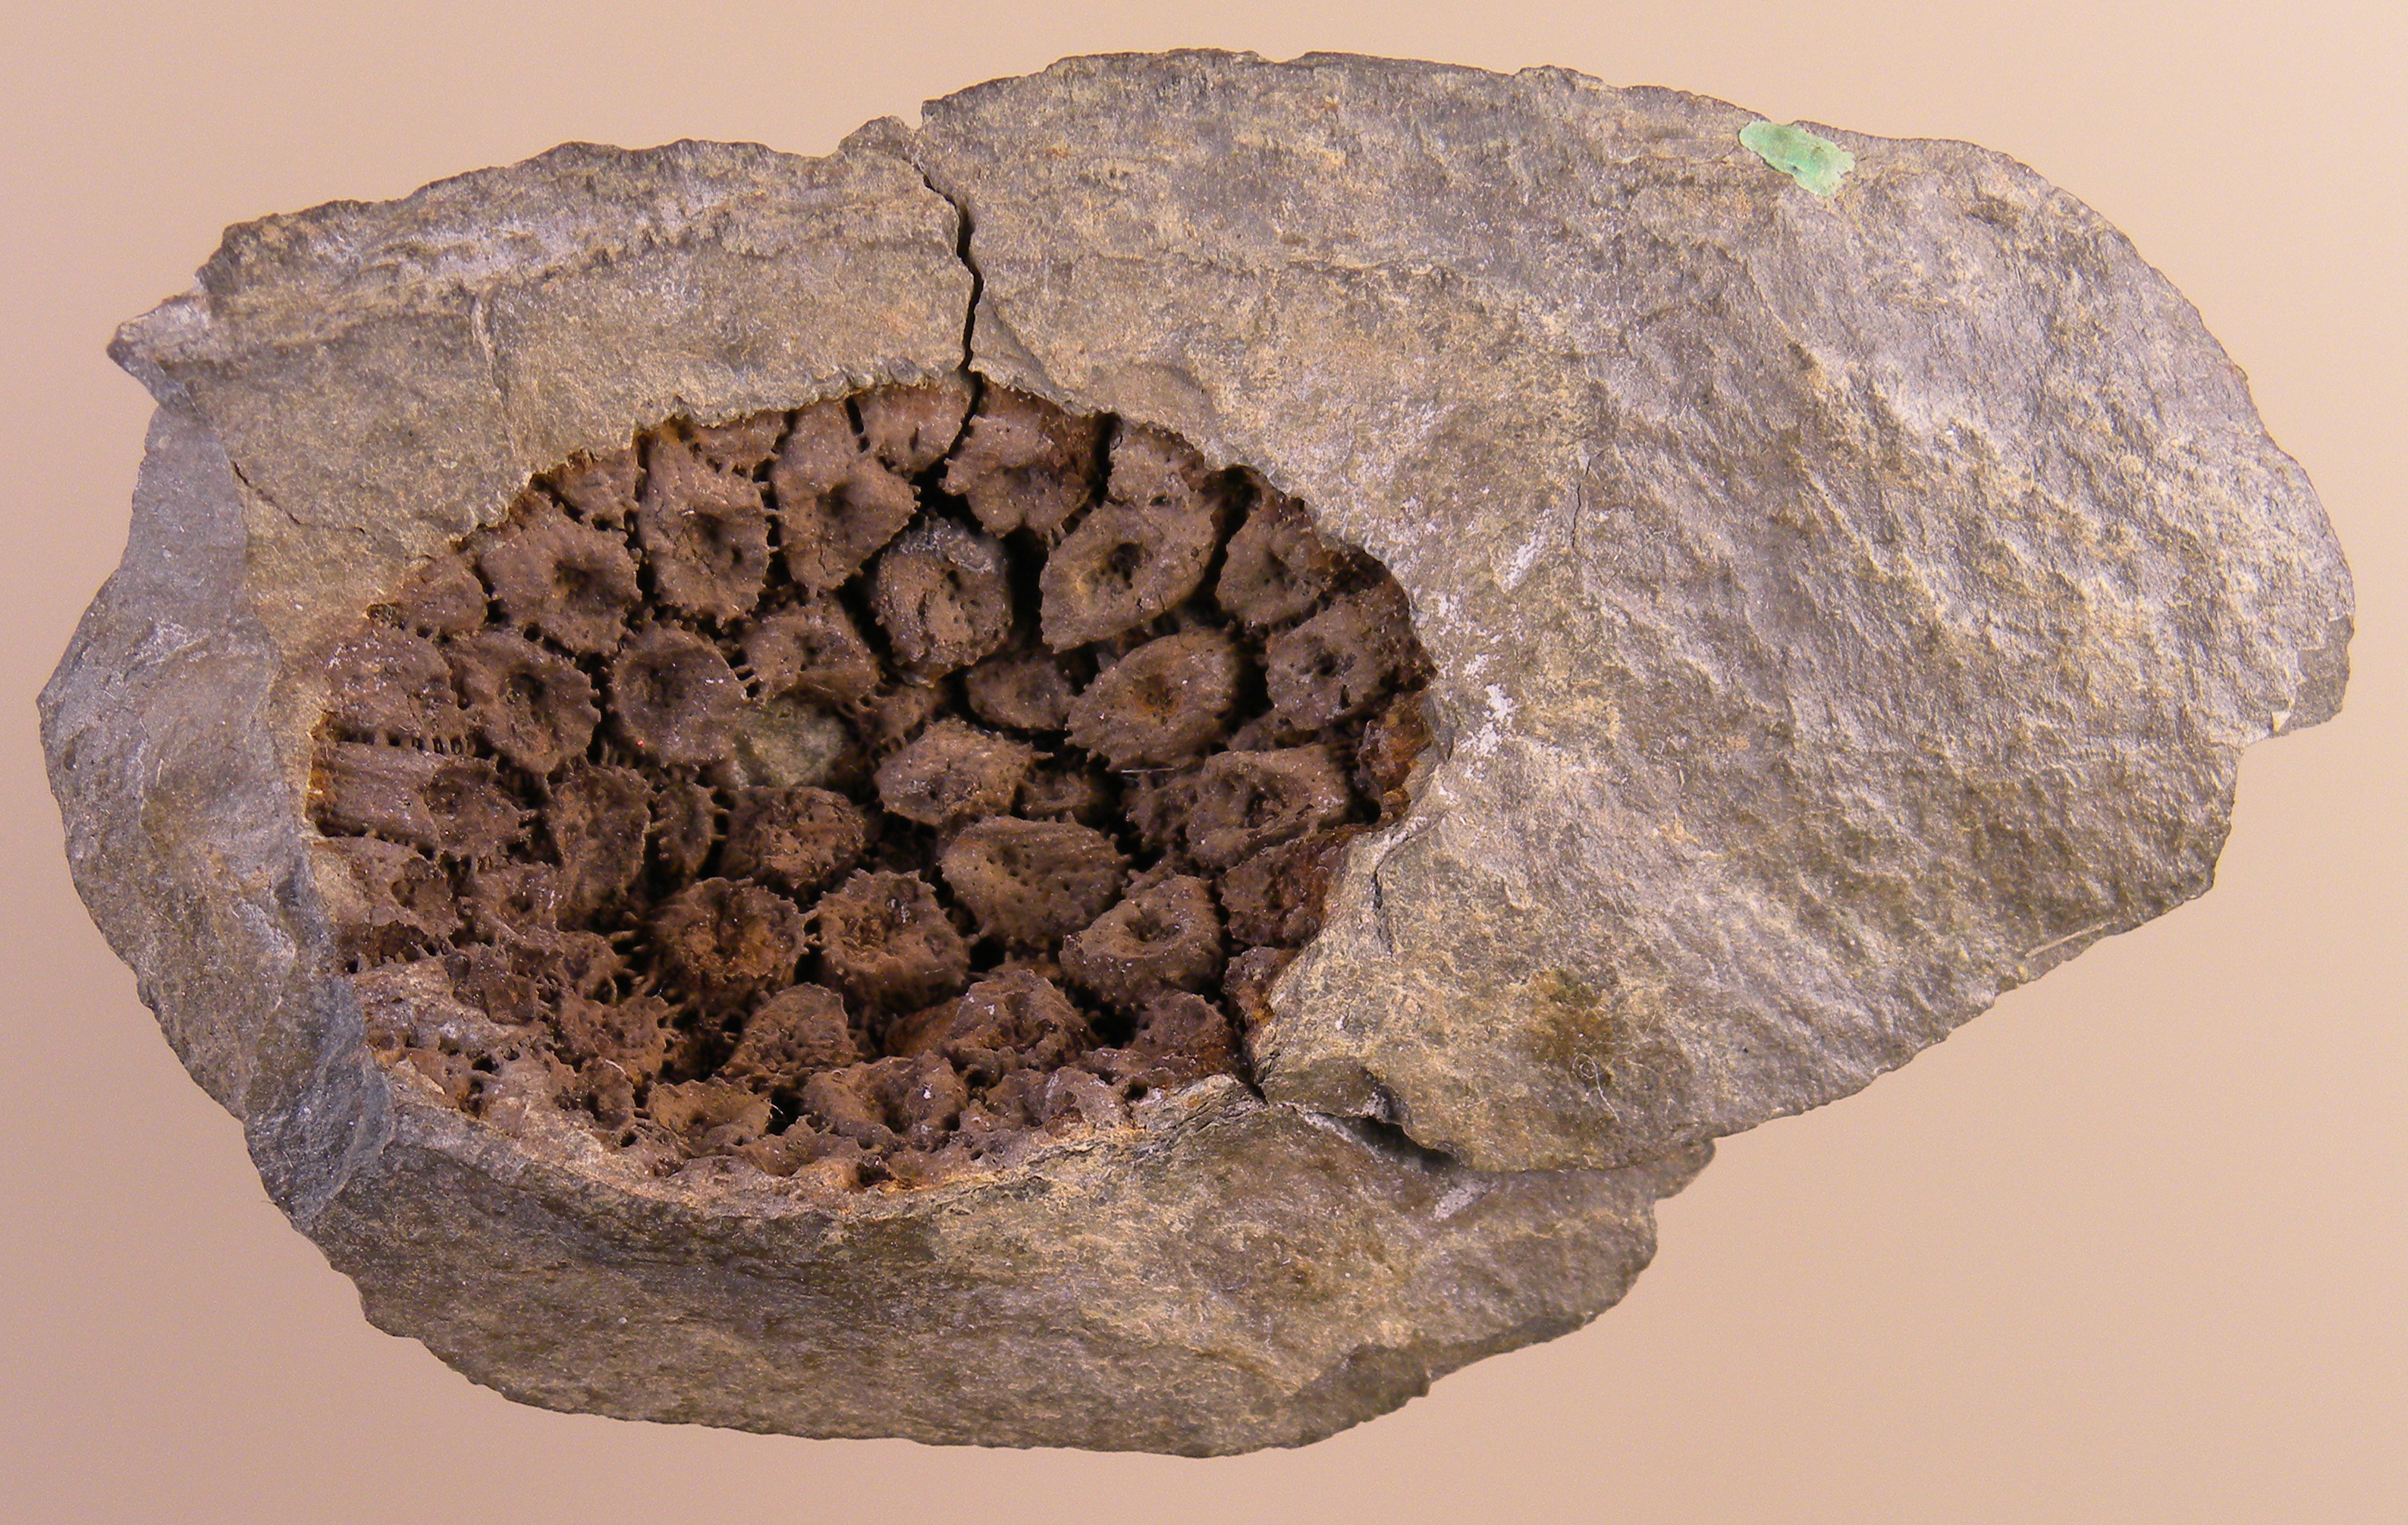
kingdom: Animalia
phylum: Mollusca
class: Bivalvia
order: Nuculanida
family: Malletiidae
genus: Palaeoneilo
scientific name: Palaeoneilo
